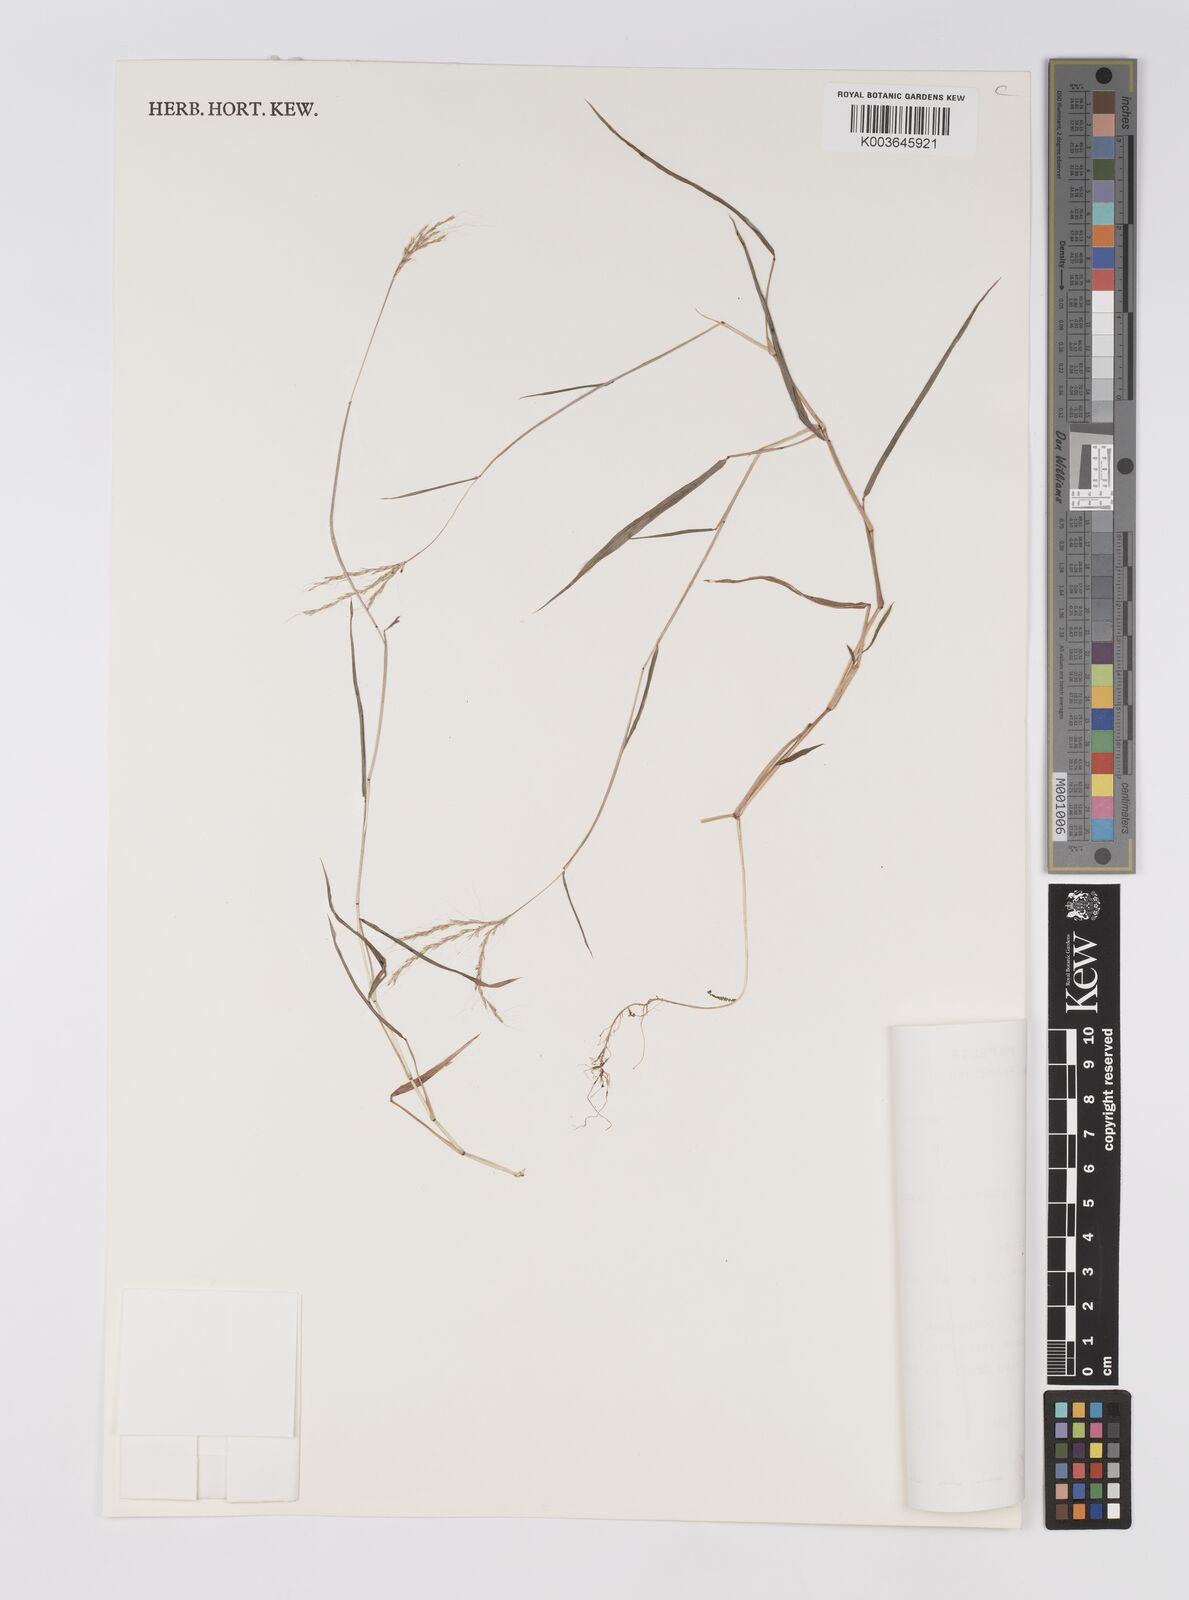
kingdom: Plantae
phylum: Tracheophyta
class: Liliopsida
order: Poales
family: Poaceae
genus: Microstegium
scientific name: Microstegium glabratum
